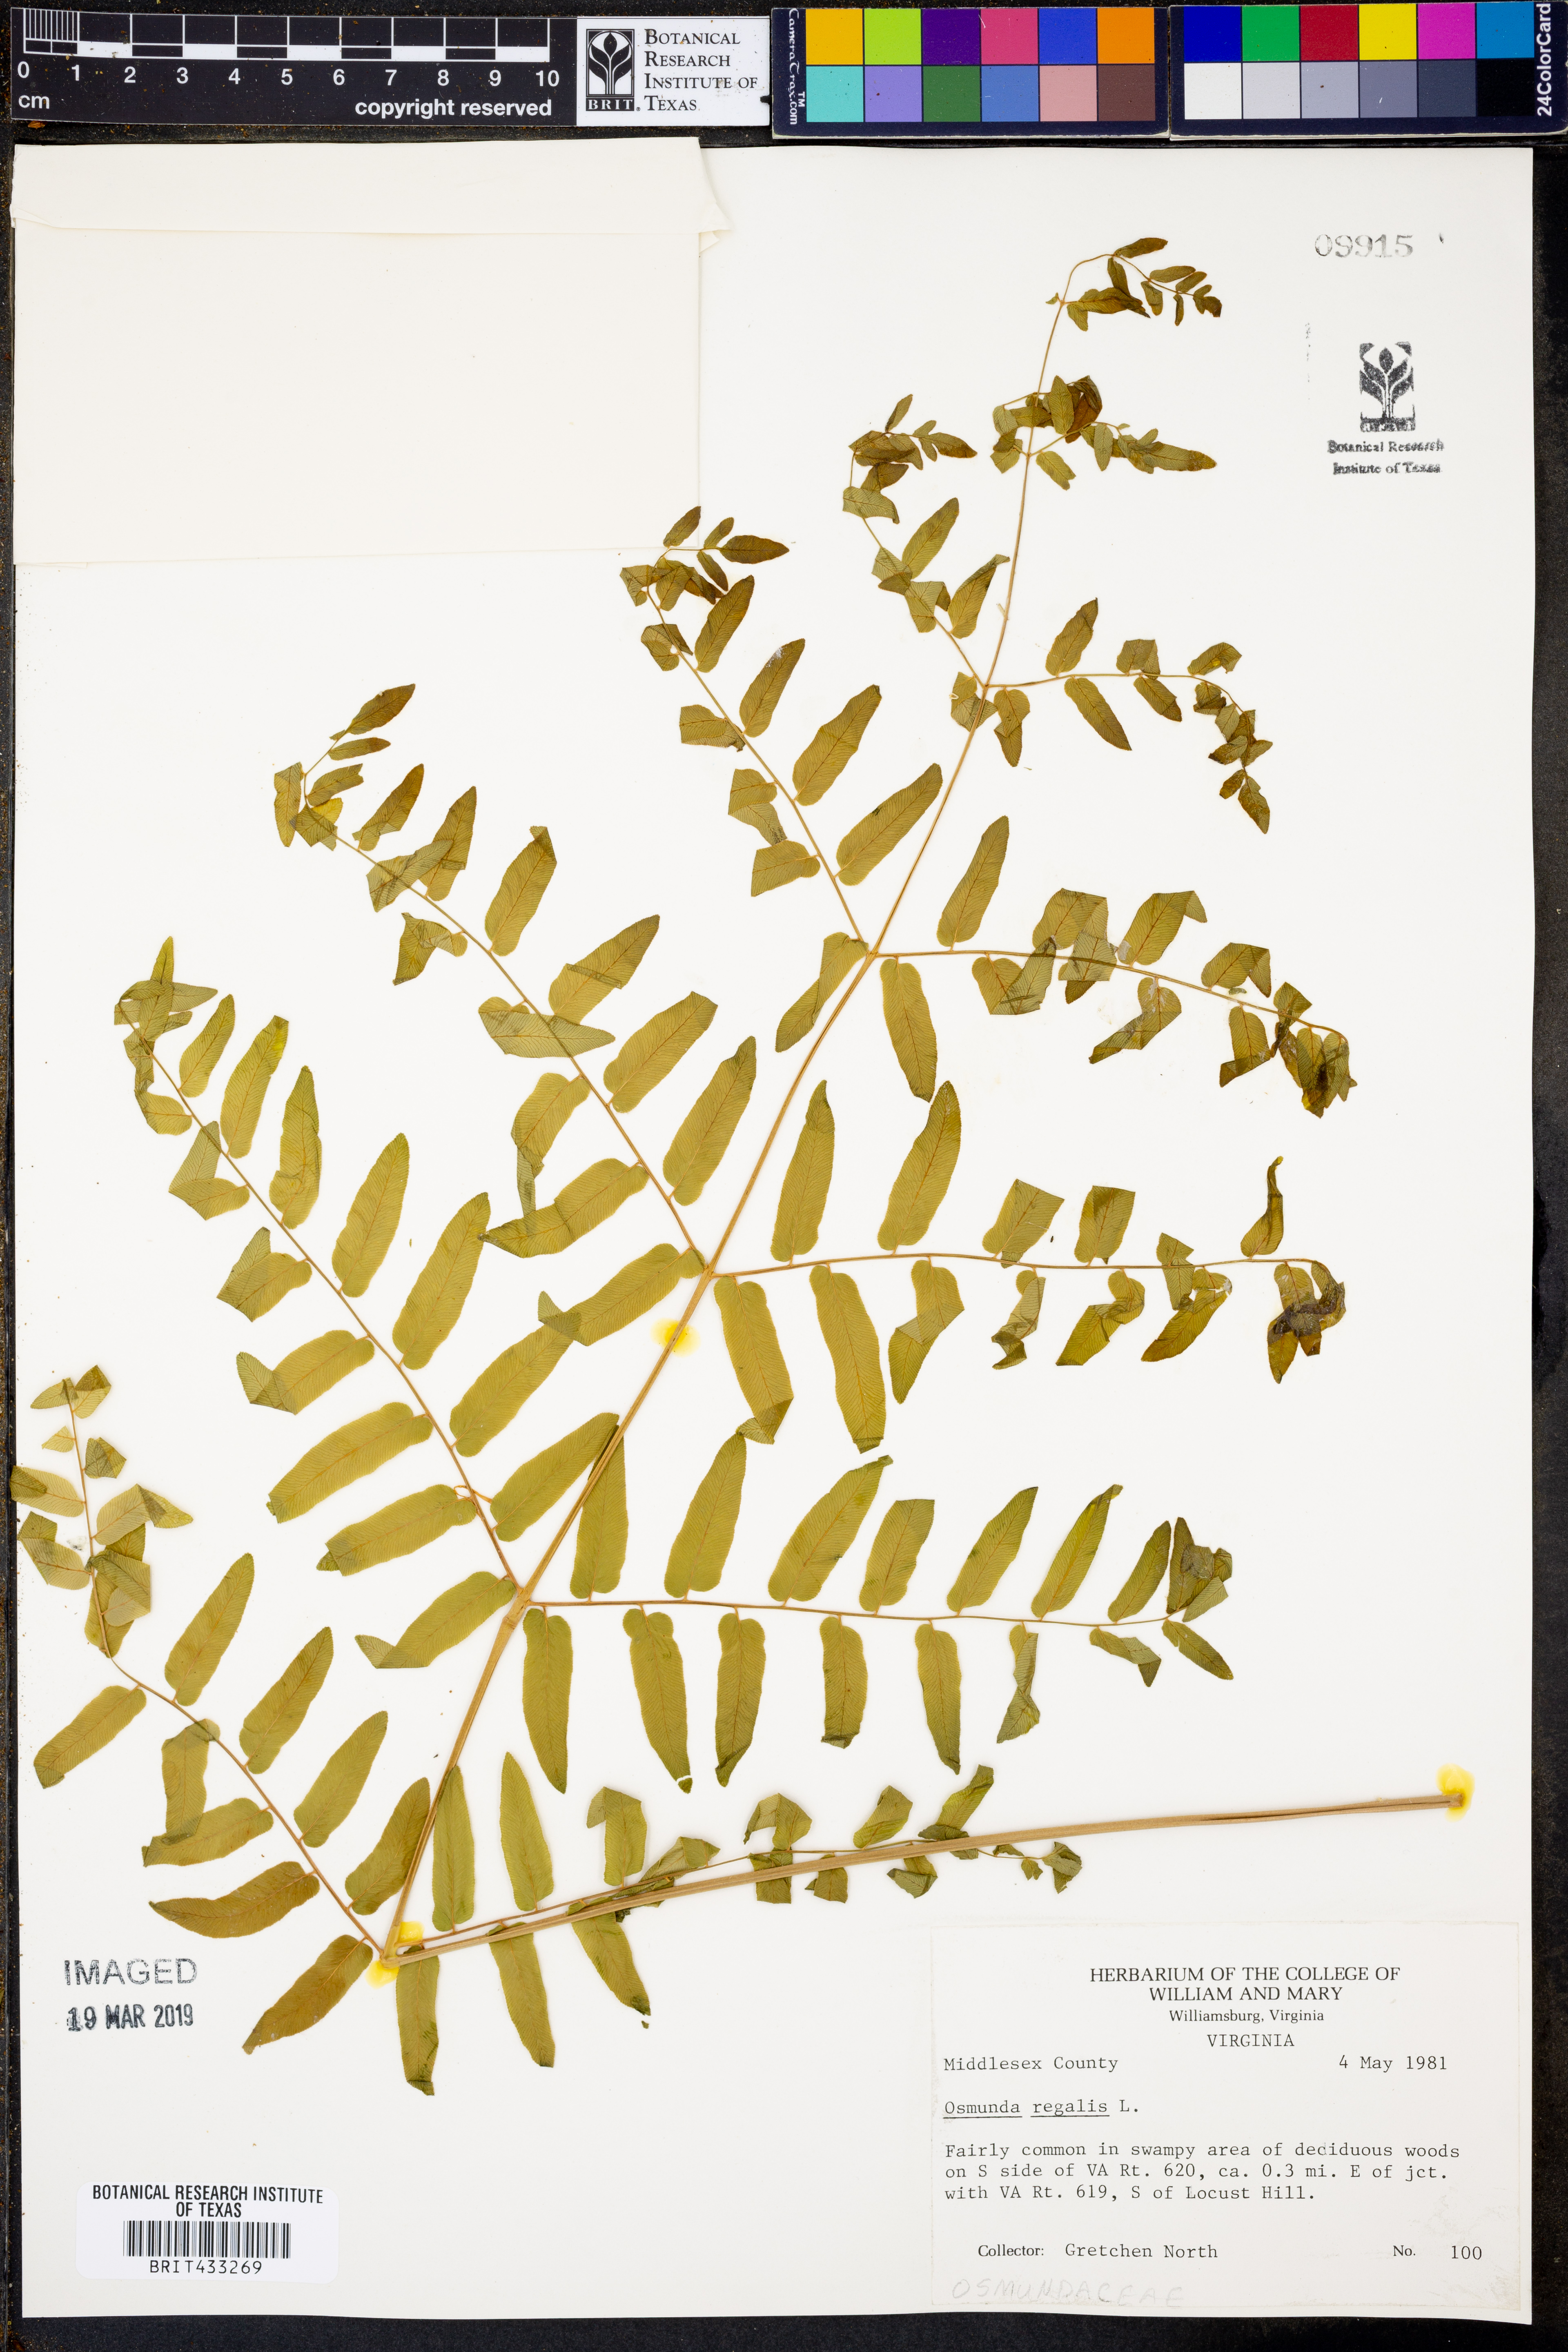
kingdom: Plantae
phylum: Tracheophyta
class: Polypodiopsida
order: Osmundales
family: Osmundaceae
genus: Osmunda
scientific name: Osmunda regalis
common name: Royal fern
